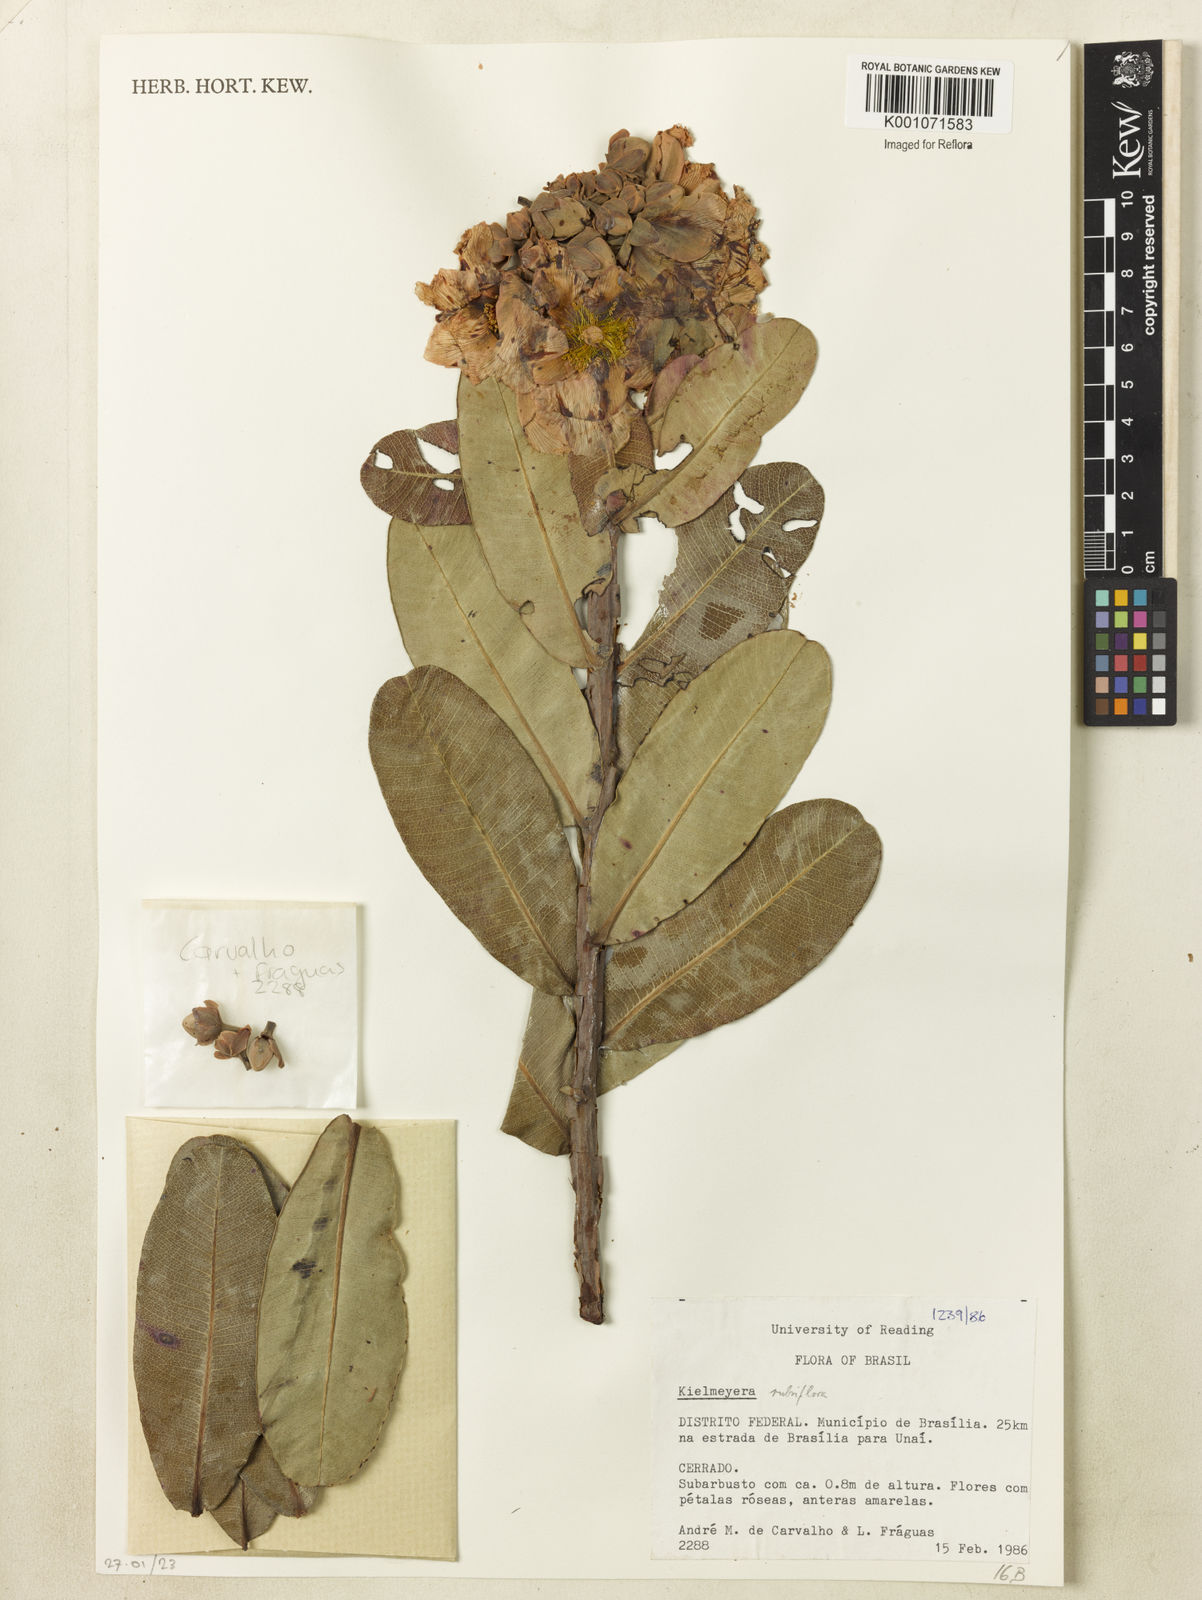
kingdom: Plantae
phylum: Tracheophyta
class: Magnoliopsida
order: Malpighiales
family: Calophyllaceae
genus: Kielmeyera
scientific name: Kielmeyera rubriflora
